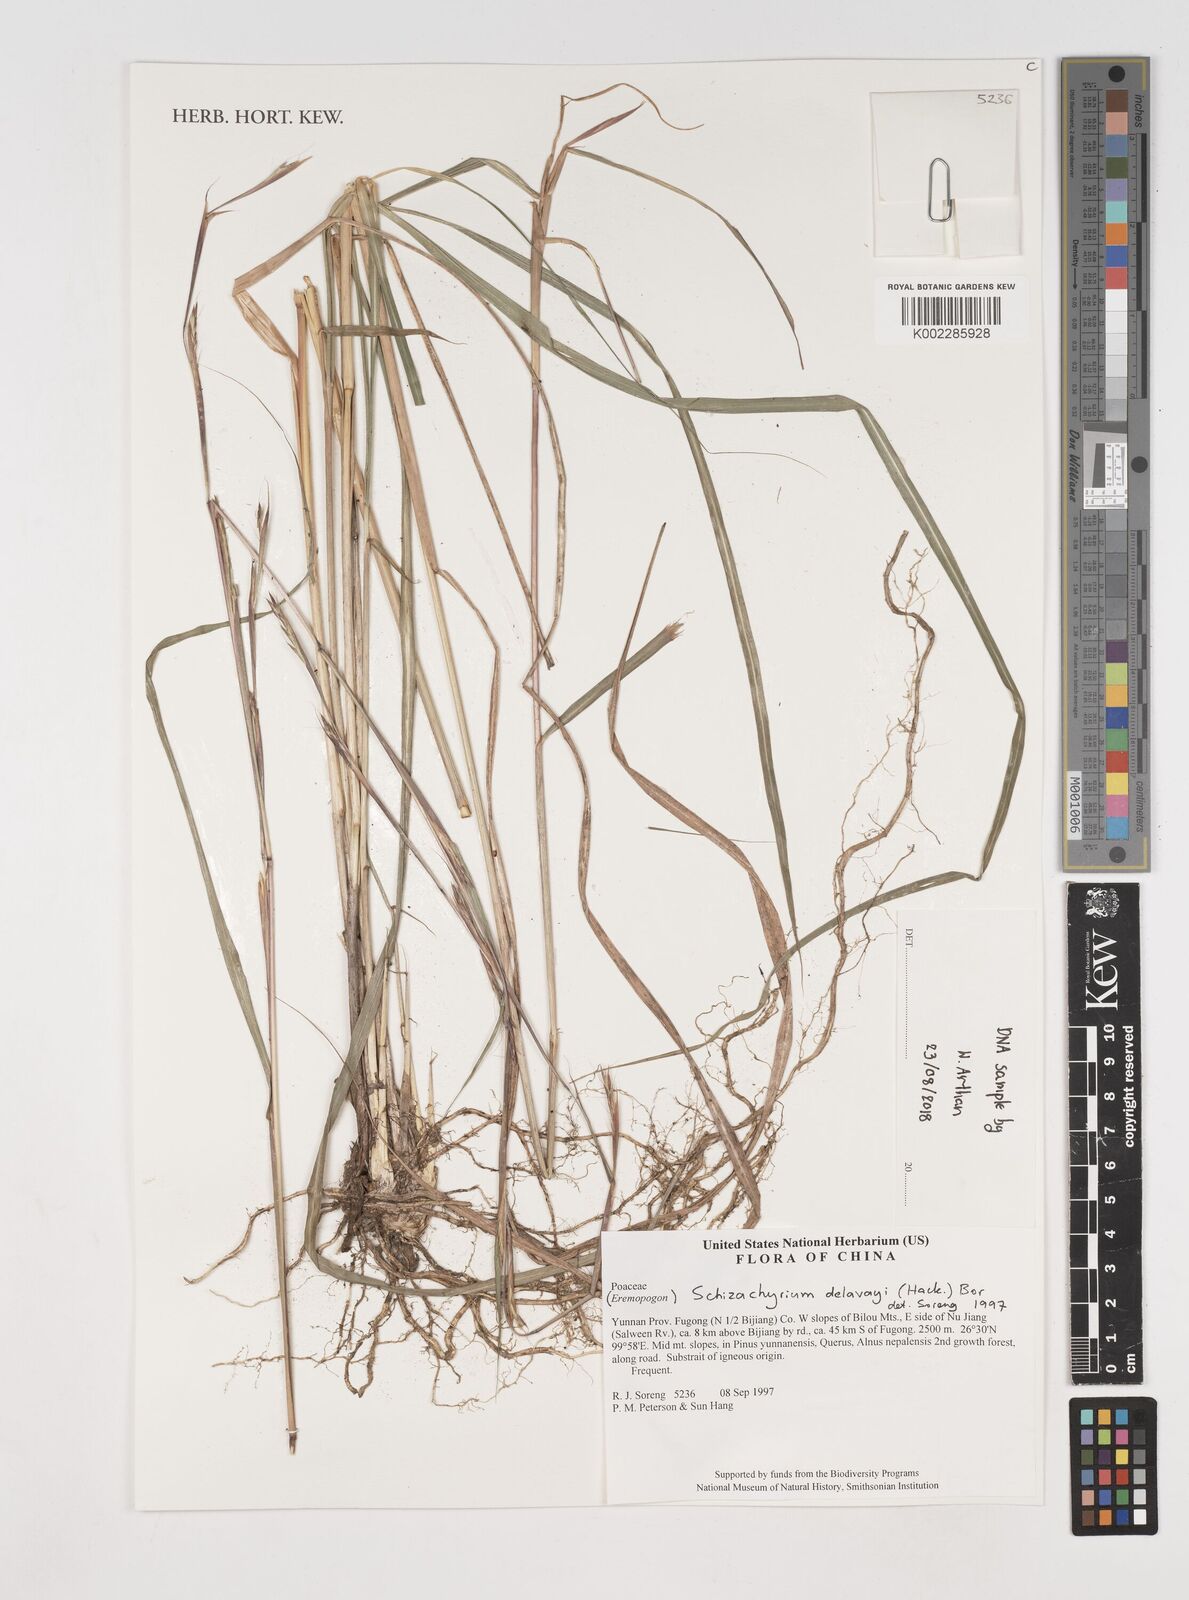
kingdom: Plantae
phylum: Tracheophyta
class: Liliopsida
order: Poales
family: Poaceae
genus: Schizachyrium
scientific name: Schizachyrium delavayi
